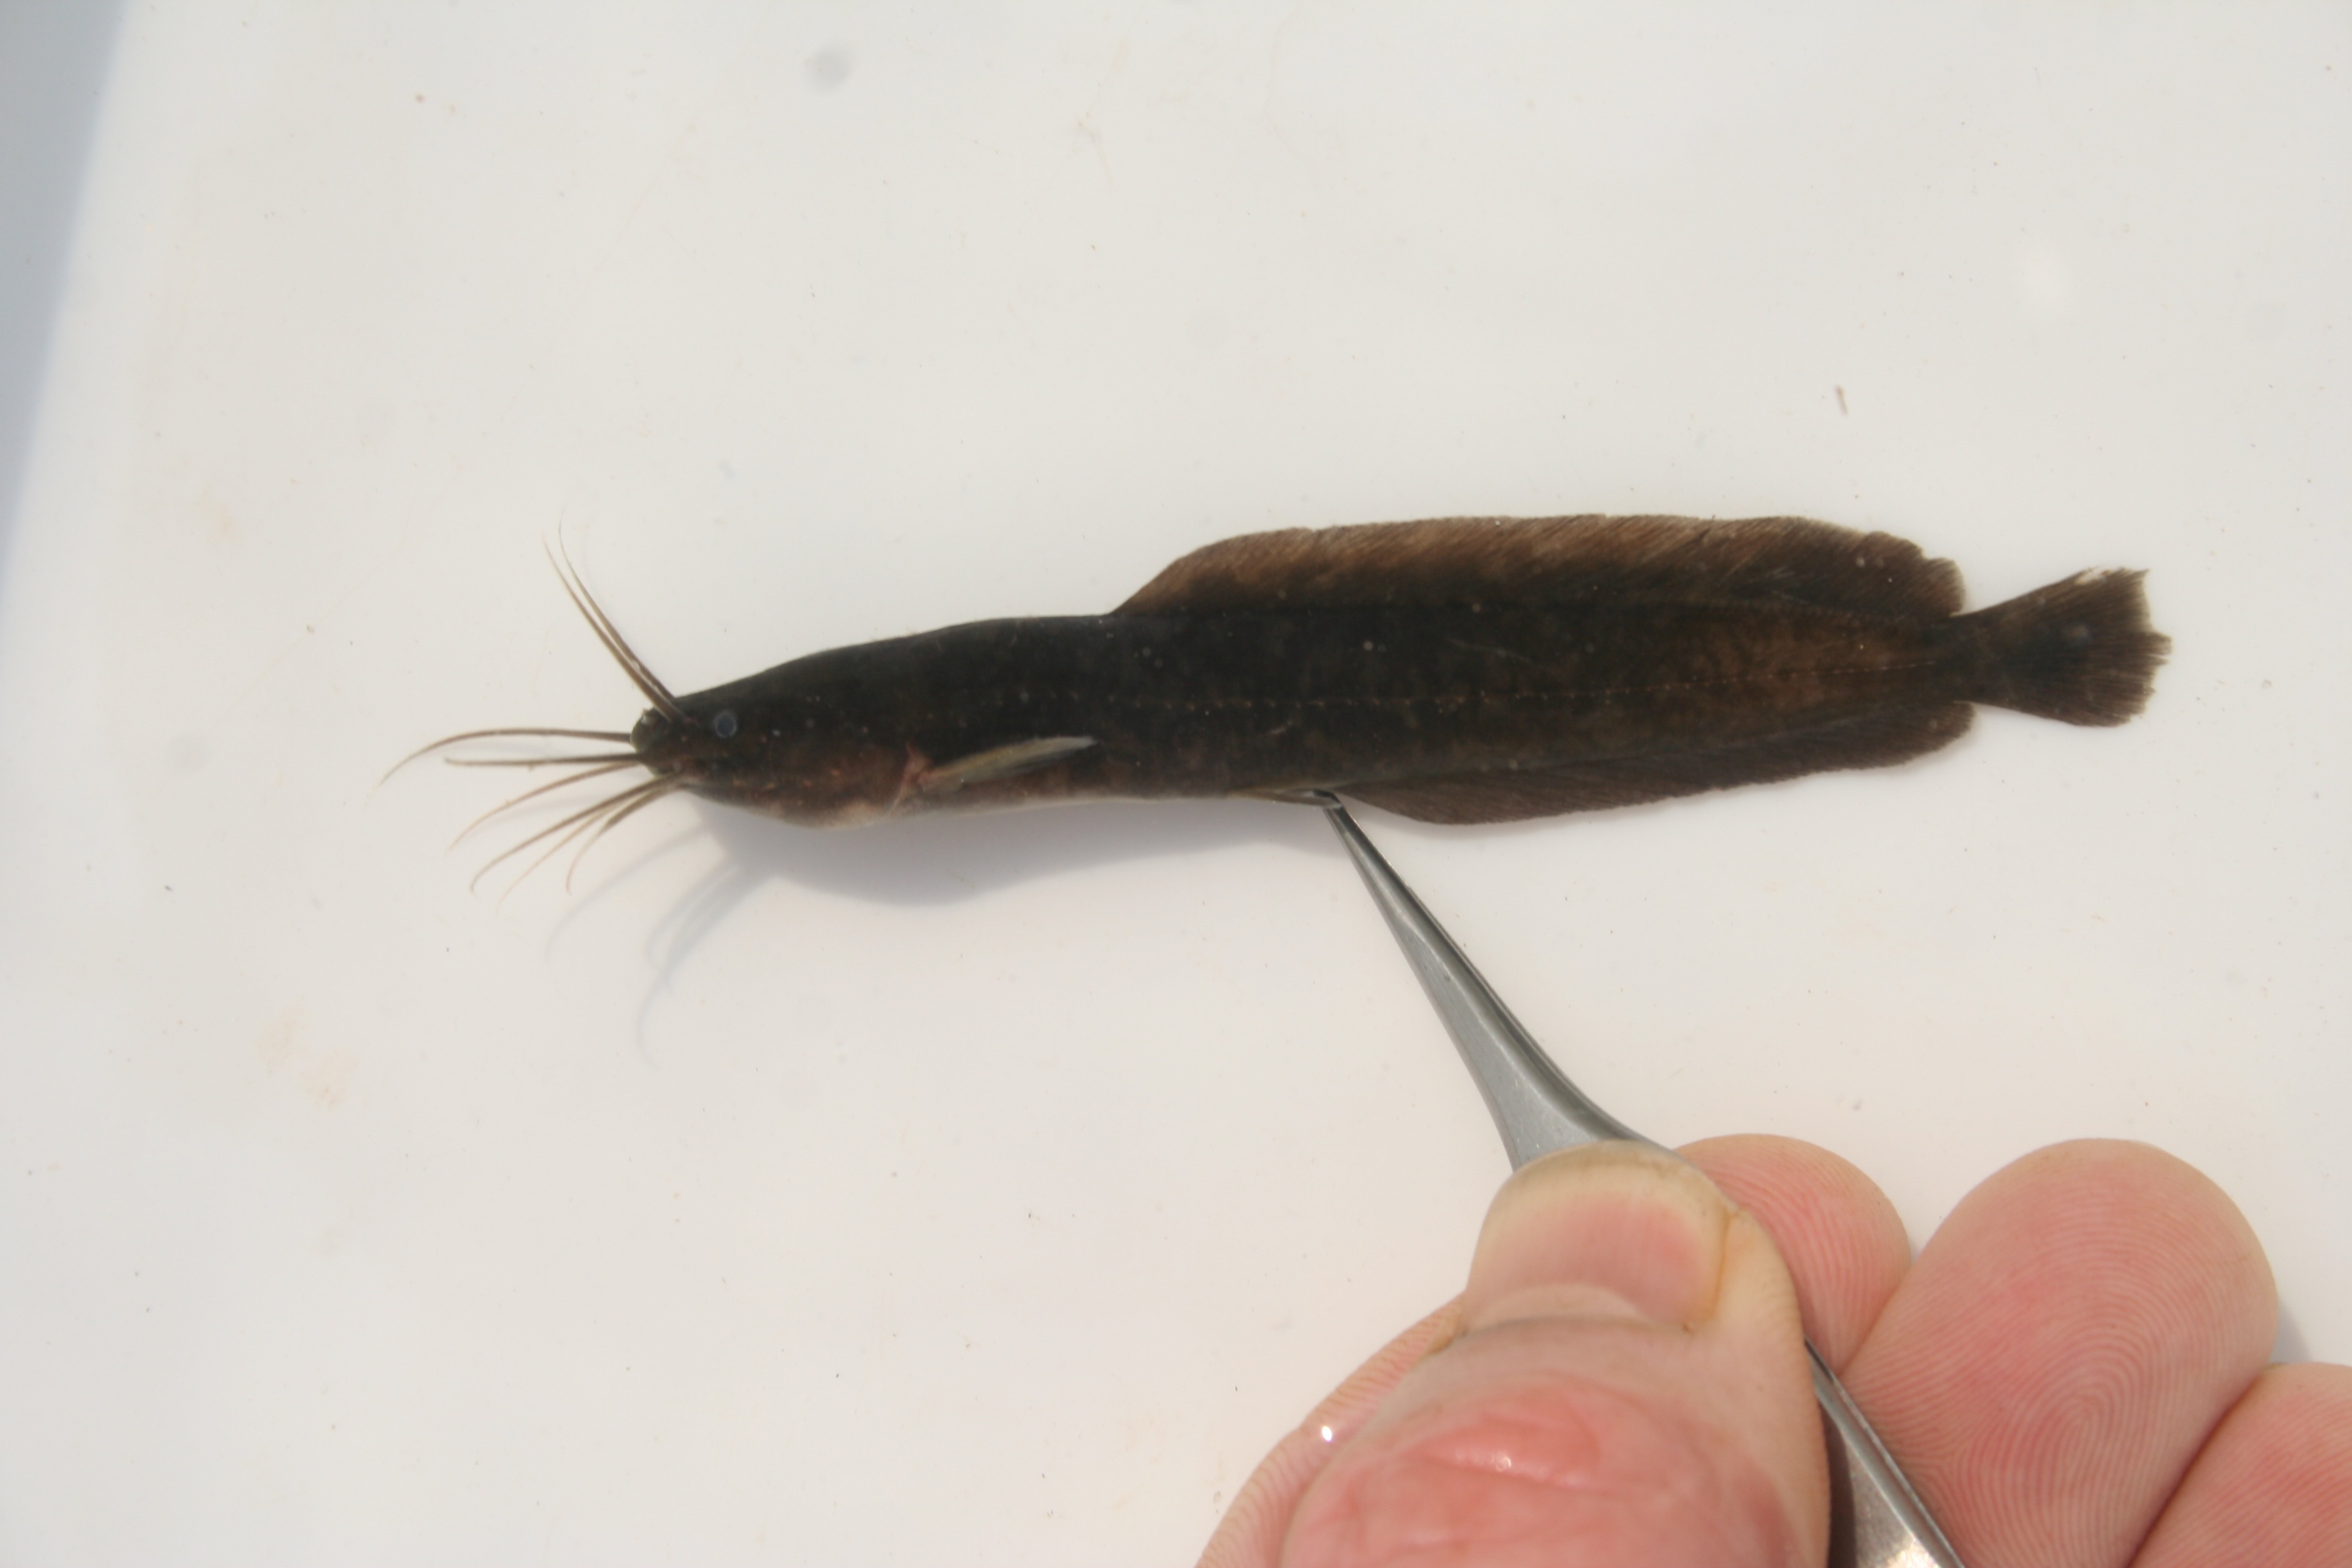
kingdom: Animalia
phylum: Chordata
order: Siluriformes
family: Clariidae
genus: Clarias
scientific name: Clarias
